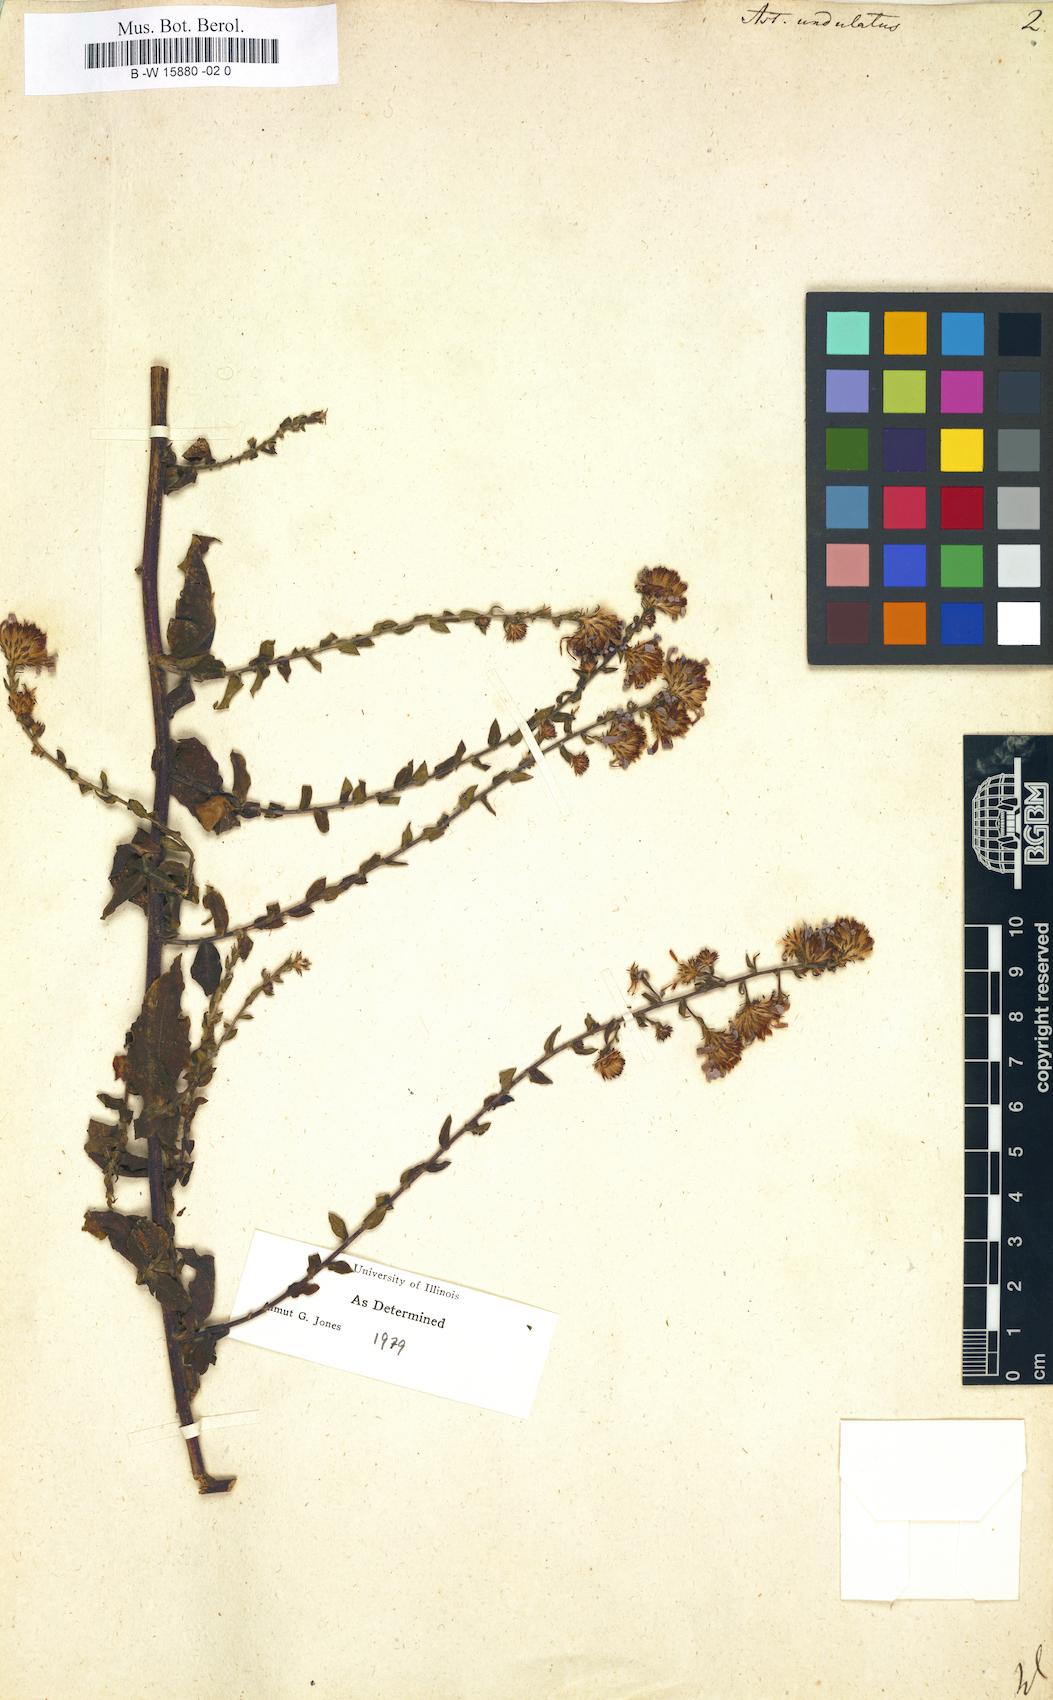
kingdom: Plantae
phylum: Tracheophyta
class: Magnoliopsida
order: Asterales
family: Asteraceae
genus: Symphyotrichum
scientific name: Symphyotrichum undulatum
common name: Clasping heart-leaf aster
